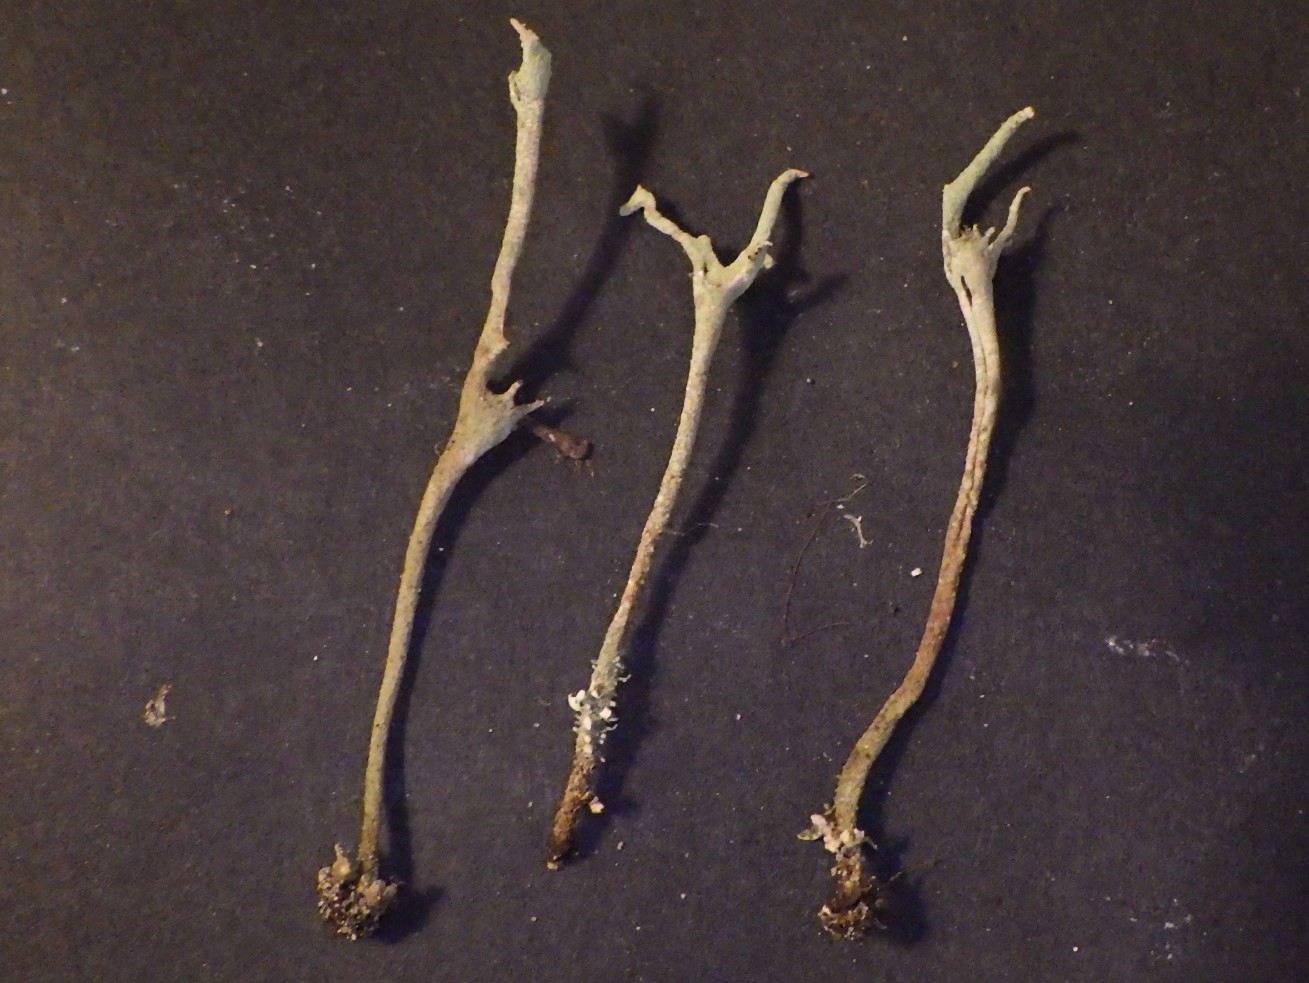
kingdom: Fungi
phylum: Ascomycota
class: Lecanoromycetes
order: Lecanorales
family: Cladoniaceae
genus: Cladonia
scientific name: Cladonia subulata
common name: spids bægerlav
